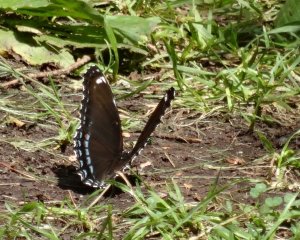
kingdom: Animalia
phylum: Arthropoda
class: Insecta
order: Lepidoptera
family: Nymphalidae
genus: Limenitis
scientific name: Limenitis astyanax
